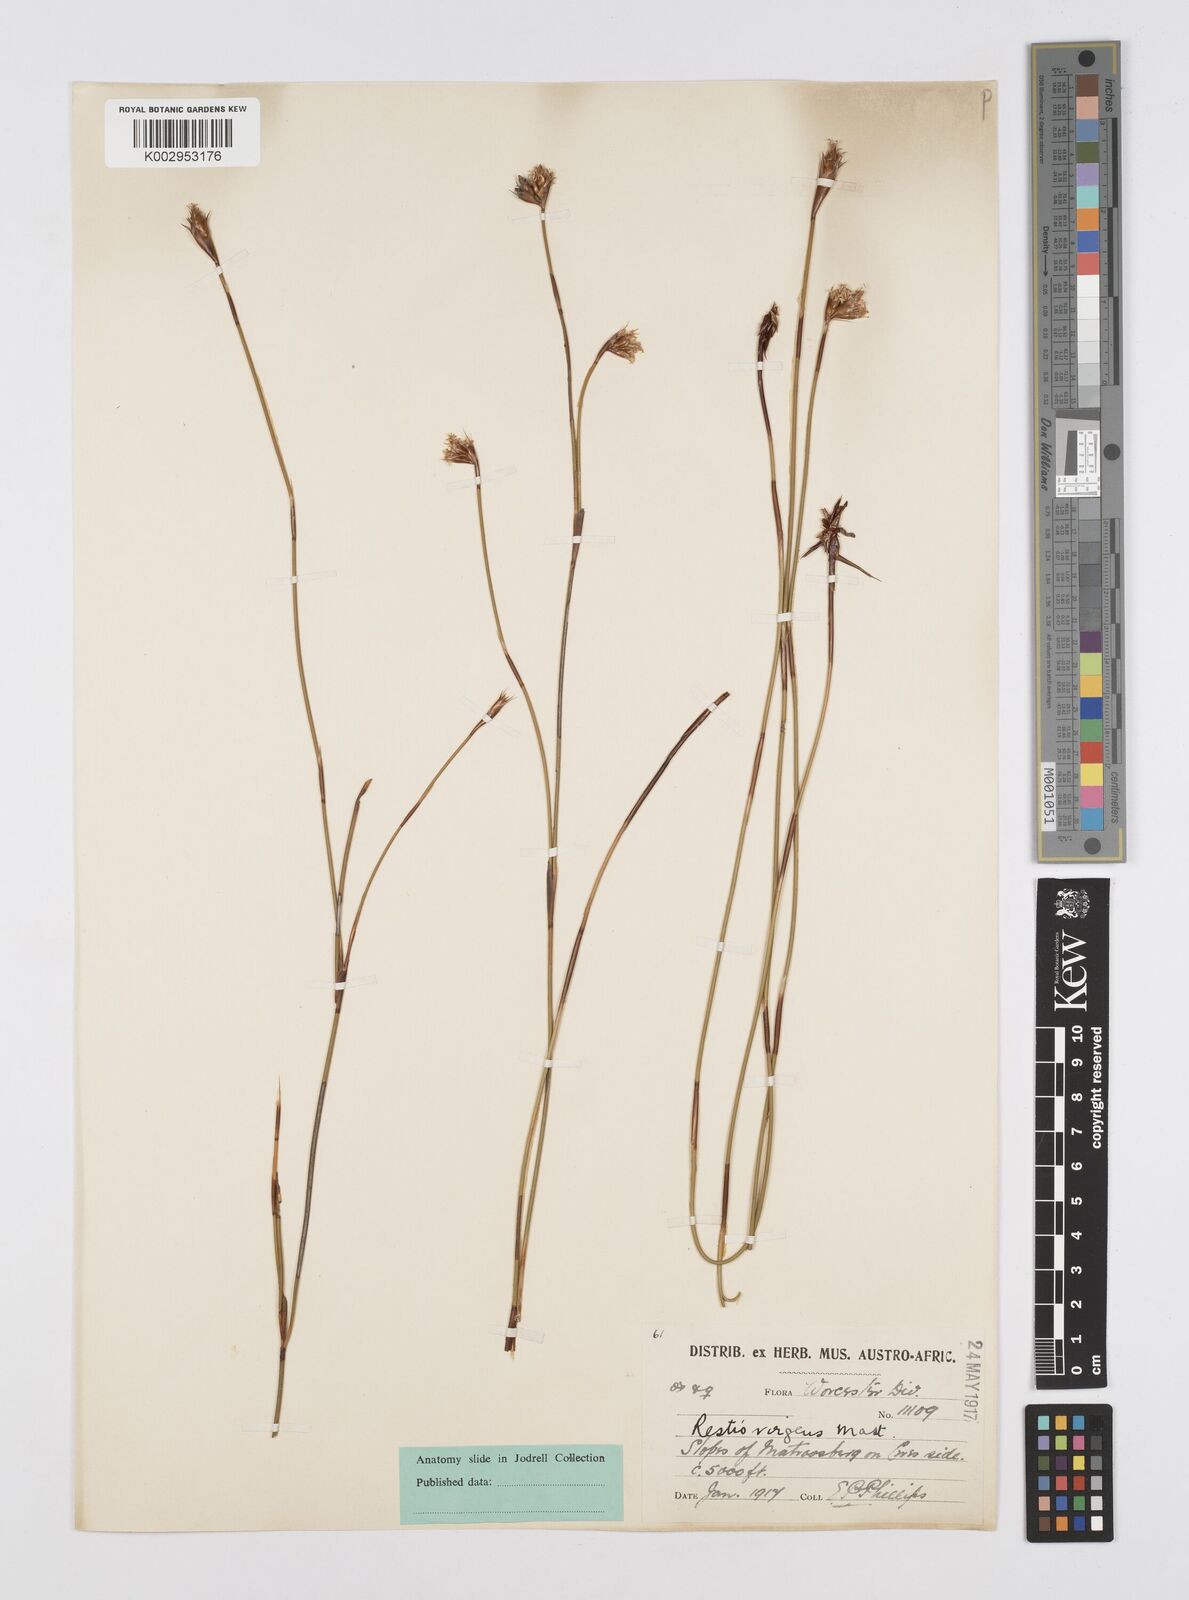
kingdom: Plantae
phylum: Tracheophyta
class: Liliopsida
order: Poales
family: Restionaceae
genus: Restio
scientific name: Restio virgeus
